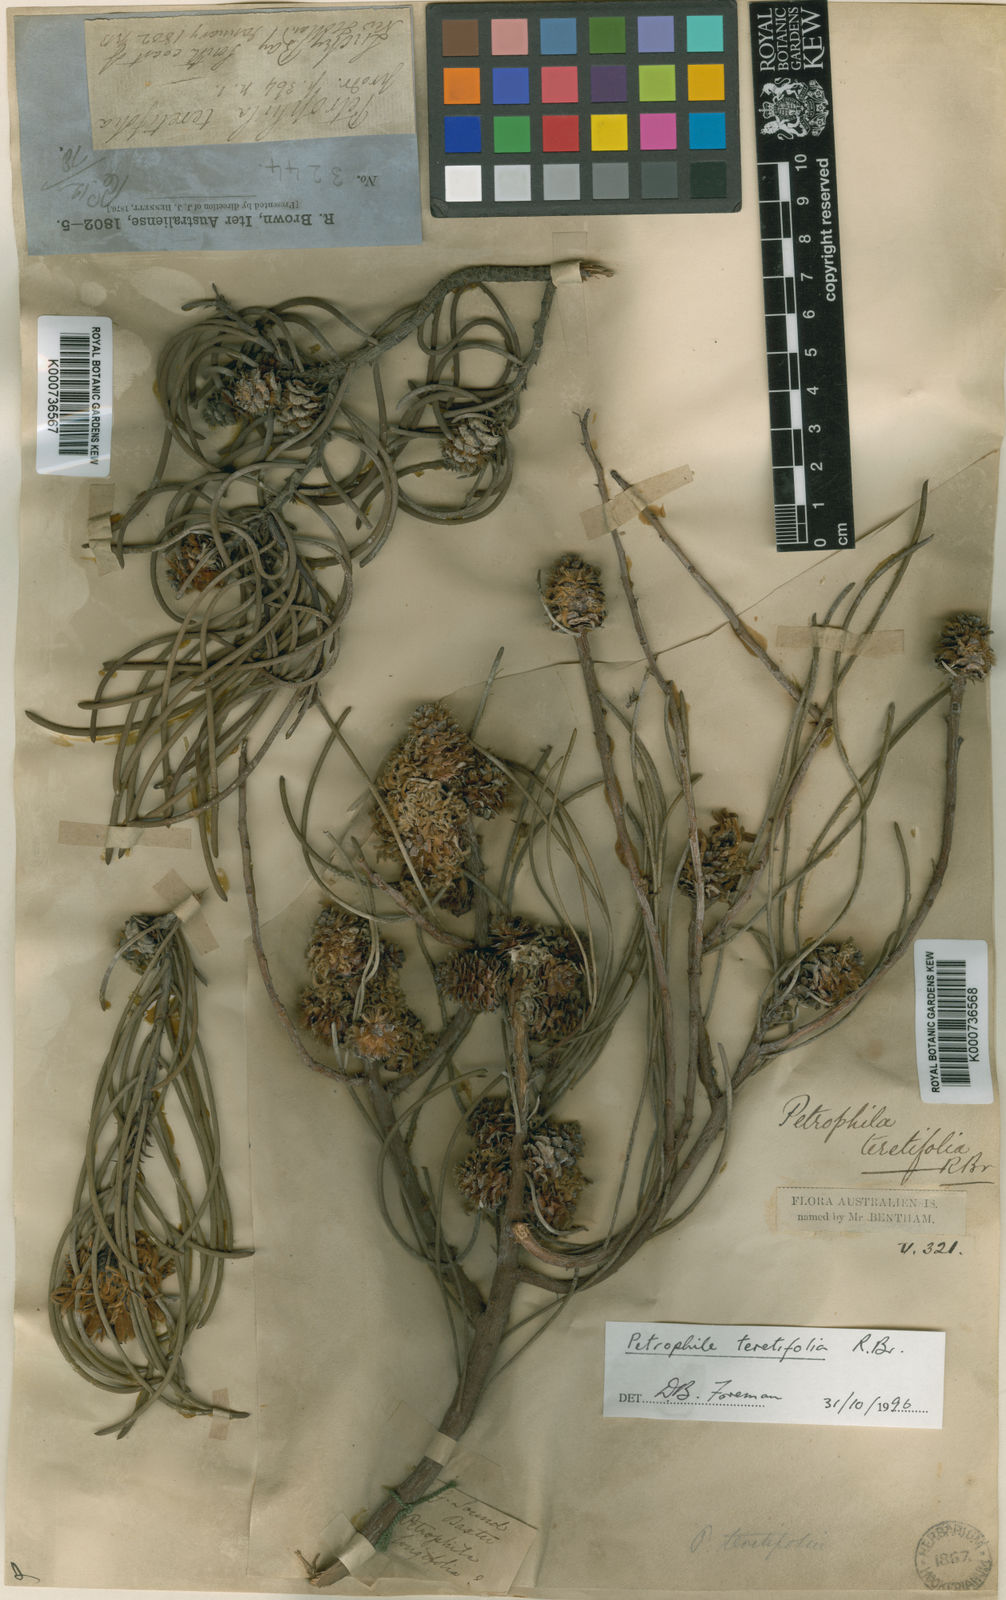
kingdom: Plantae
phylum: Tracheophyta
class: Magnoliopsida
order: Proteales
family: Proteaceae
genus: Petrophile
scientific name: Petrophile teretifolia
